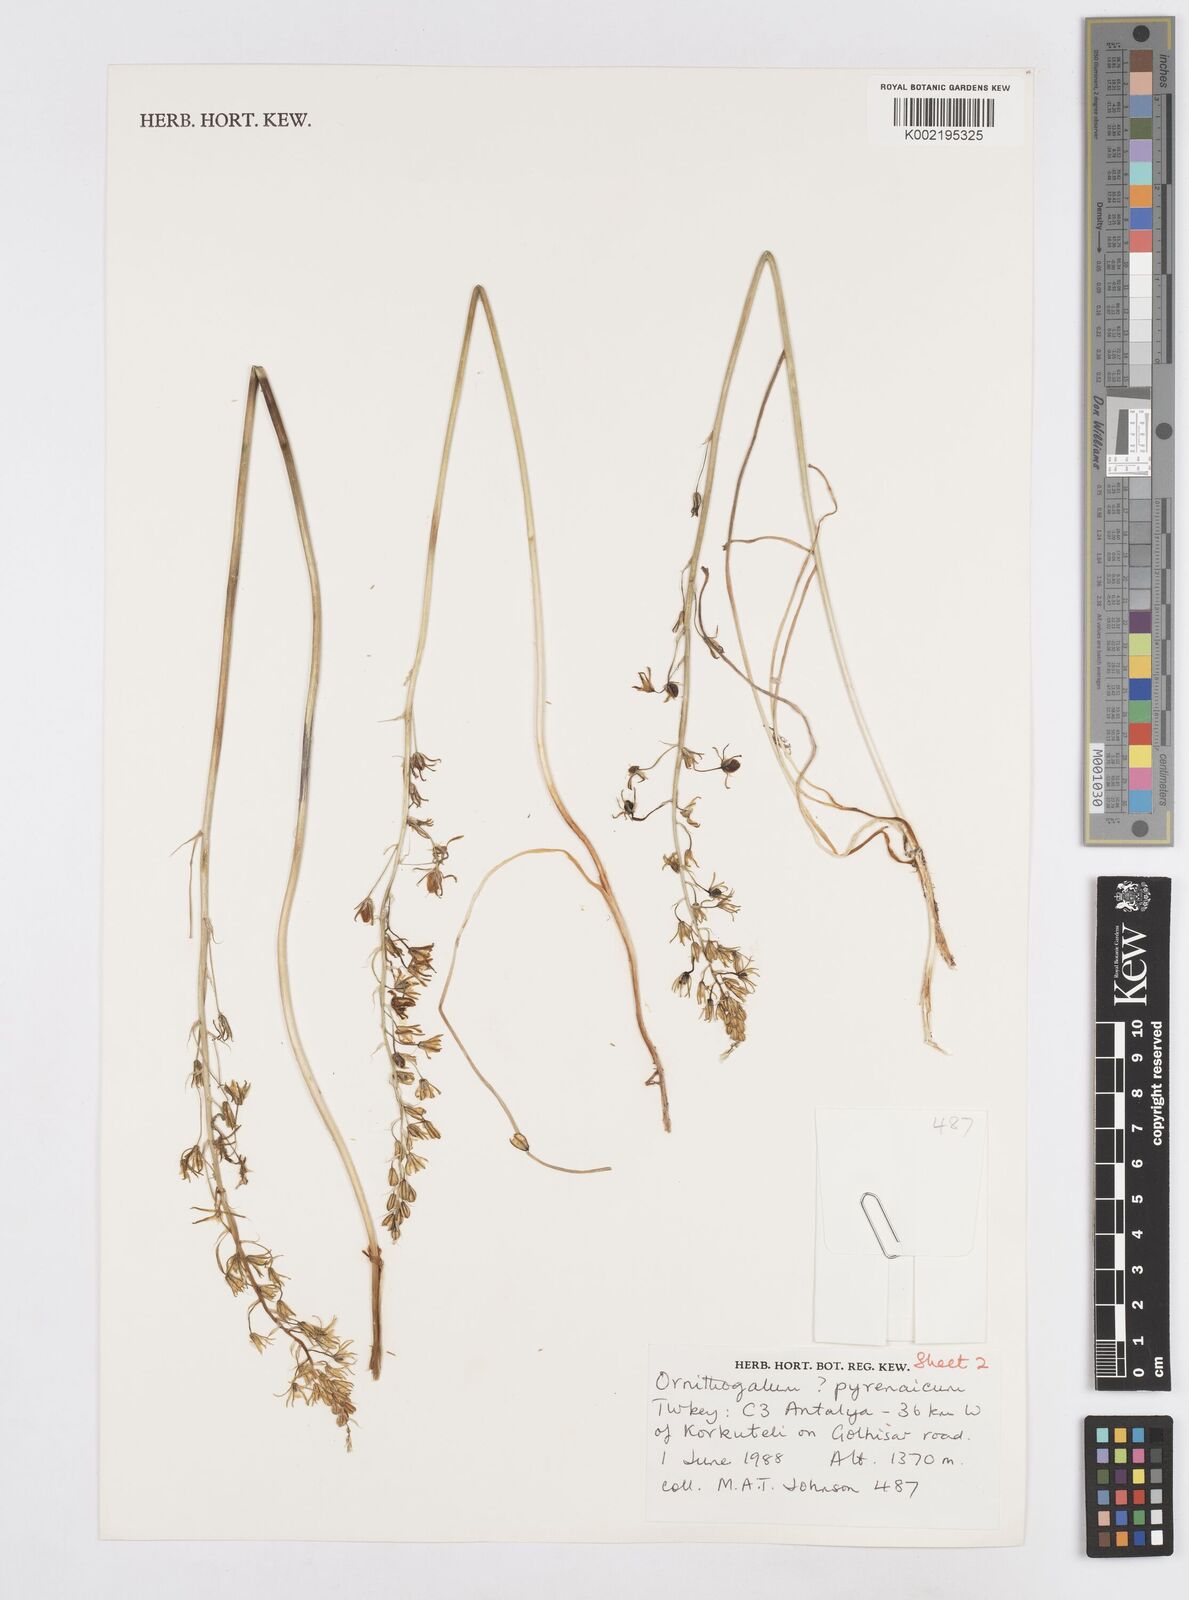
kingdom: Plantae
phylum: Tracheophyta
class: Liliopsida
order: Asparagales
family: Asparagaceae
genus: Ornithogalum
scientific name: Ornithogalum pyrenaicum
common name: Spiked star-of-bethlehem
